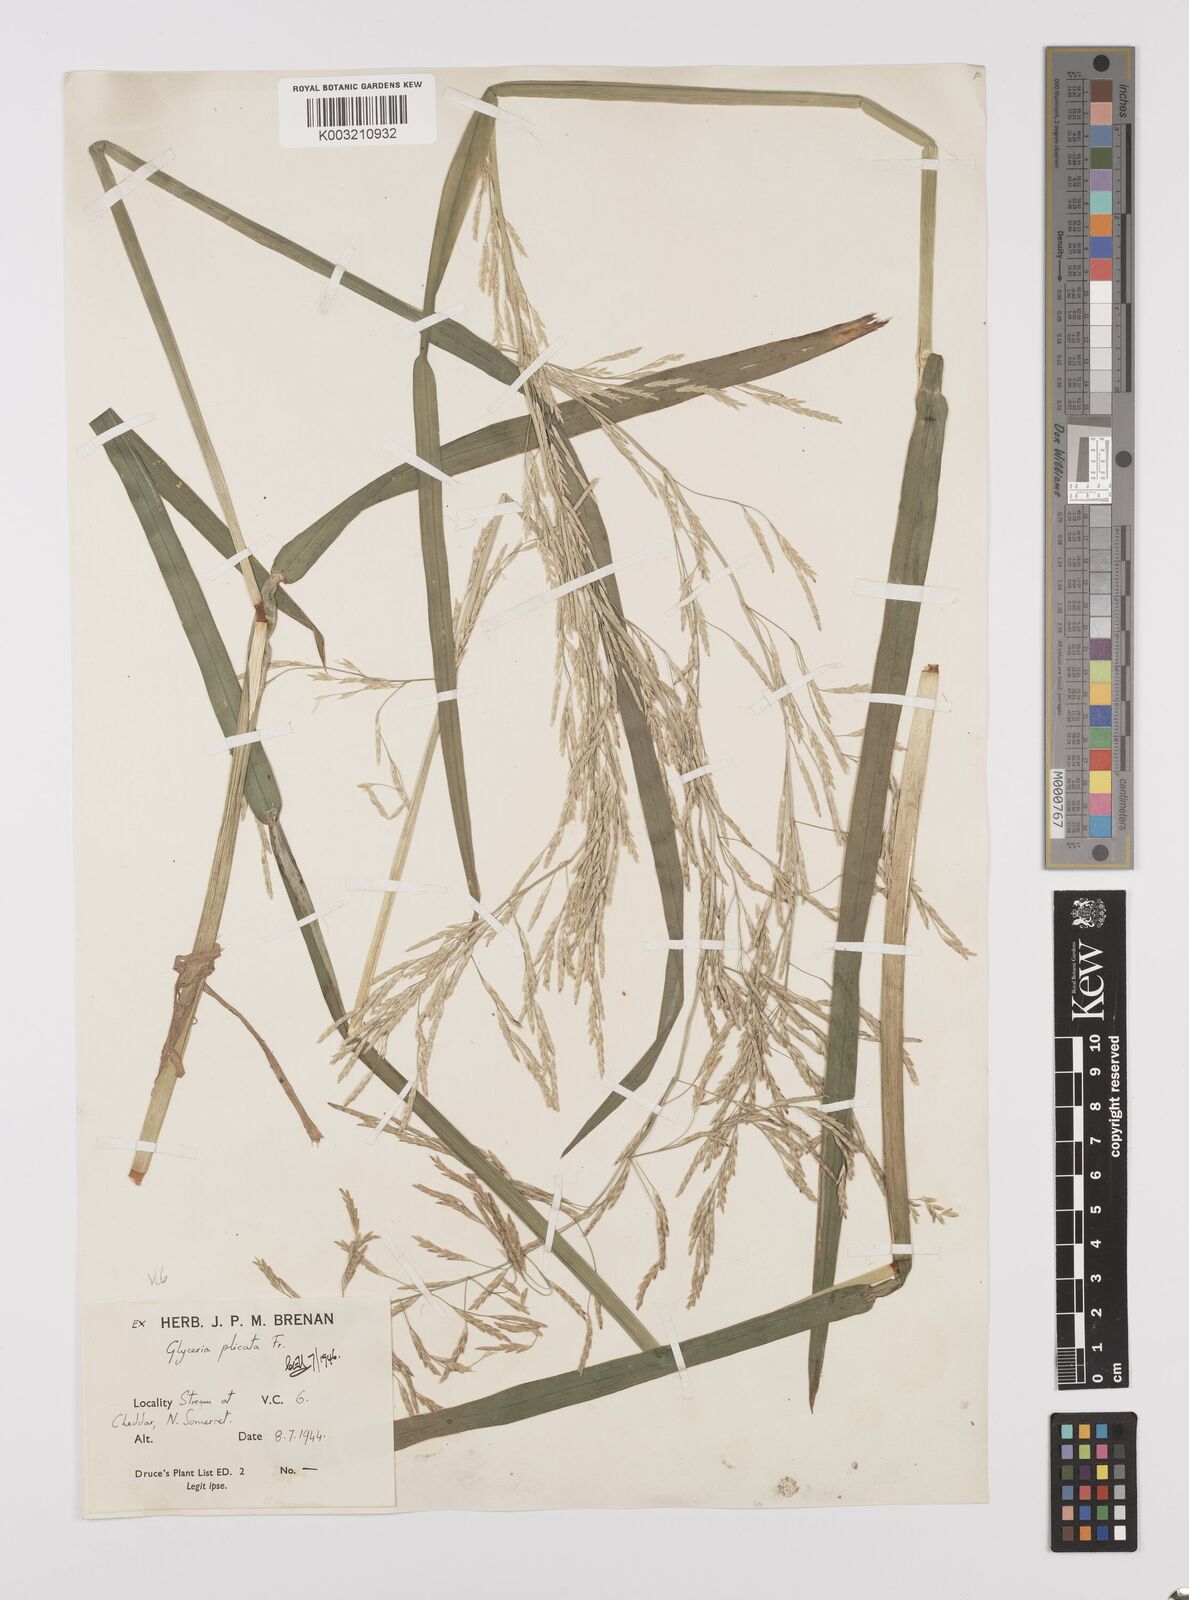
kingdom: Plantae
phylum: Tracheophyta
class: Liliopsida
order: Poales
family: Poaceae
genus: Glyceria
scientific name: Glyceria notata
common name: Plicate sweet-grass
